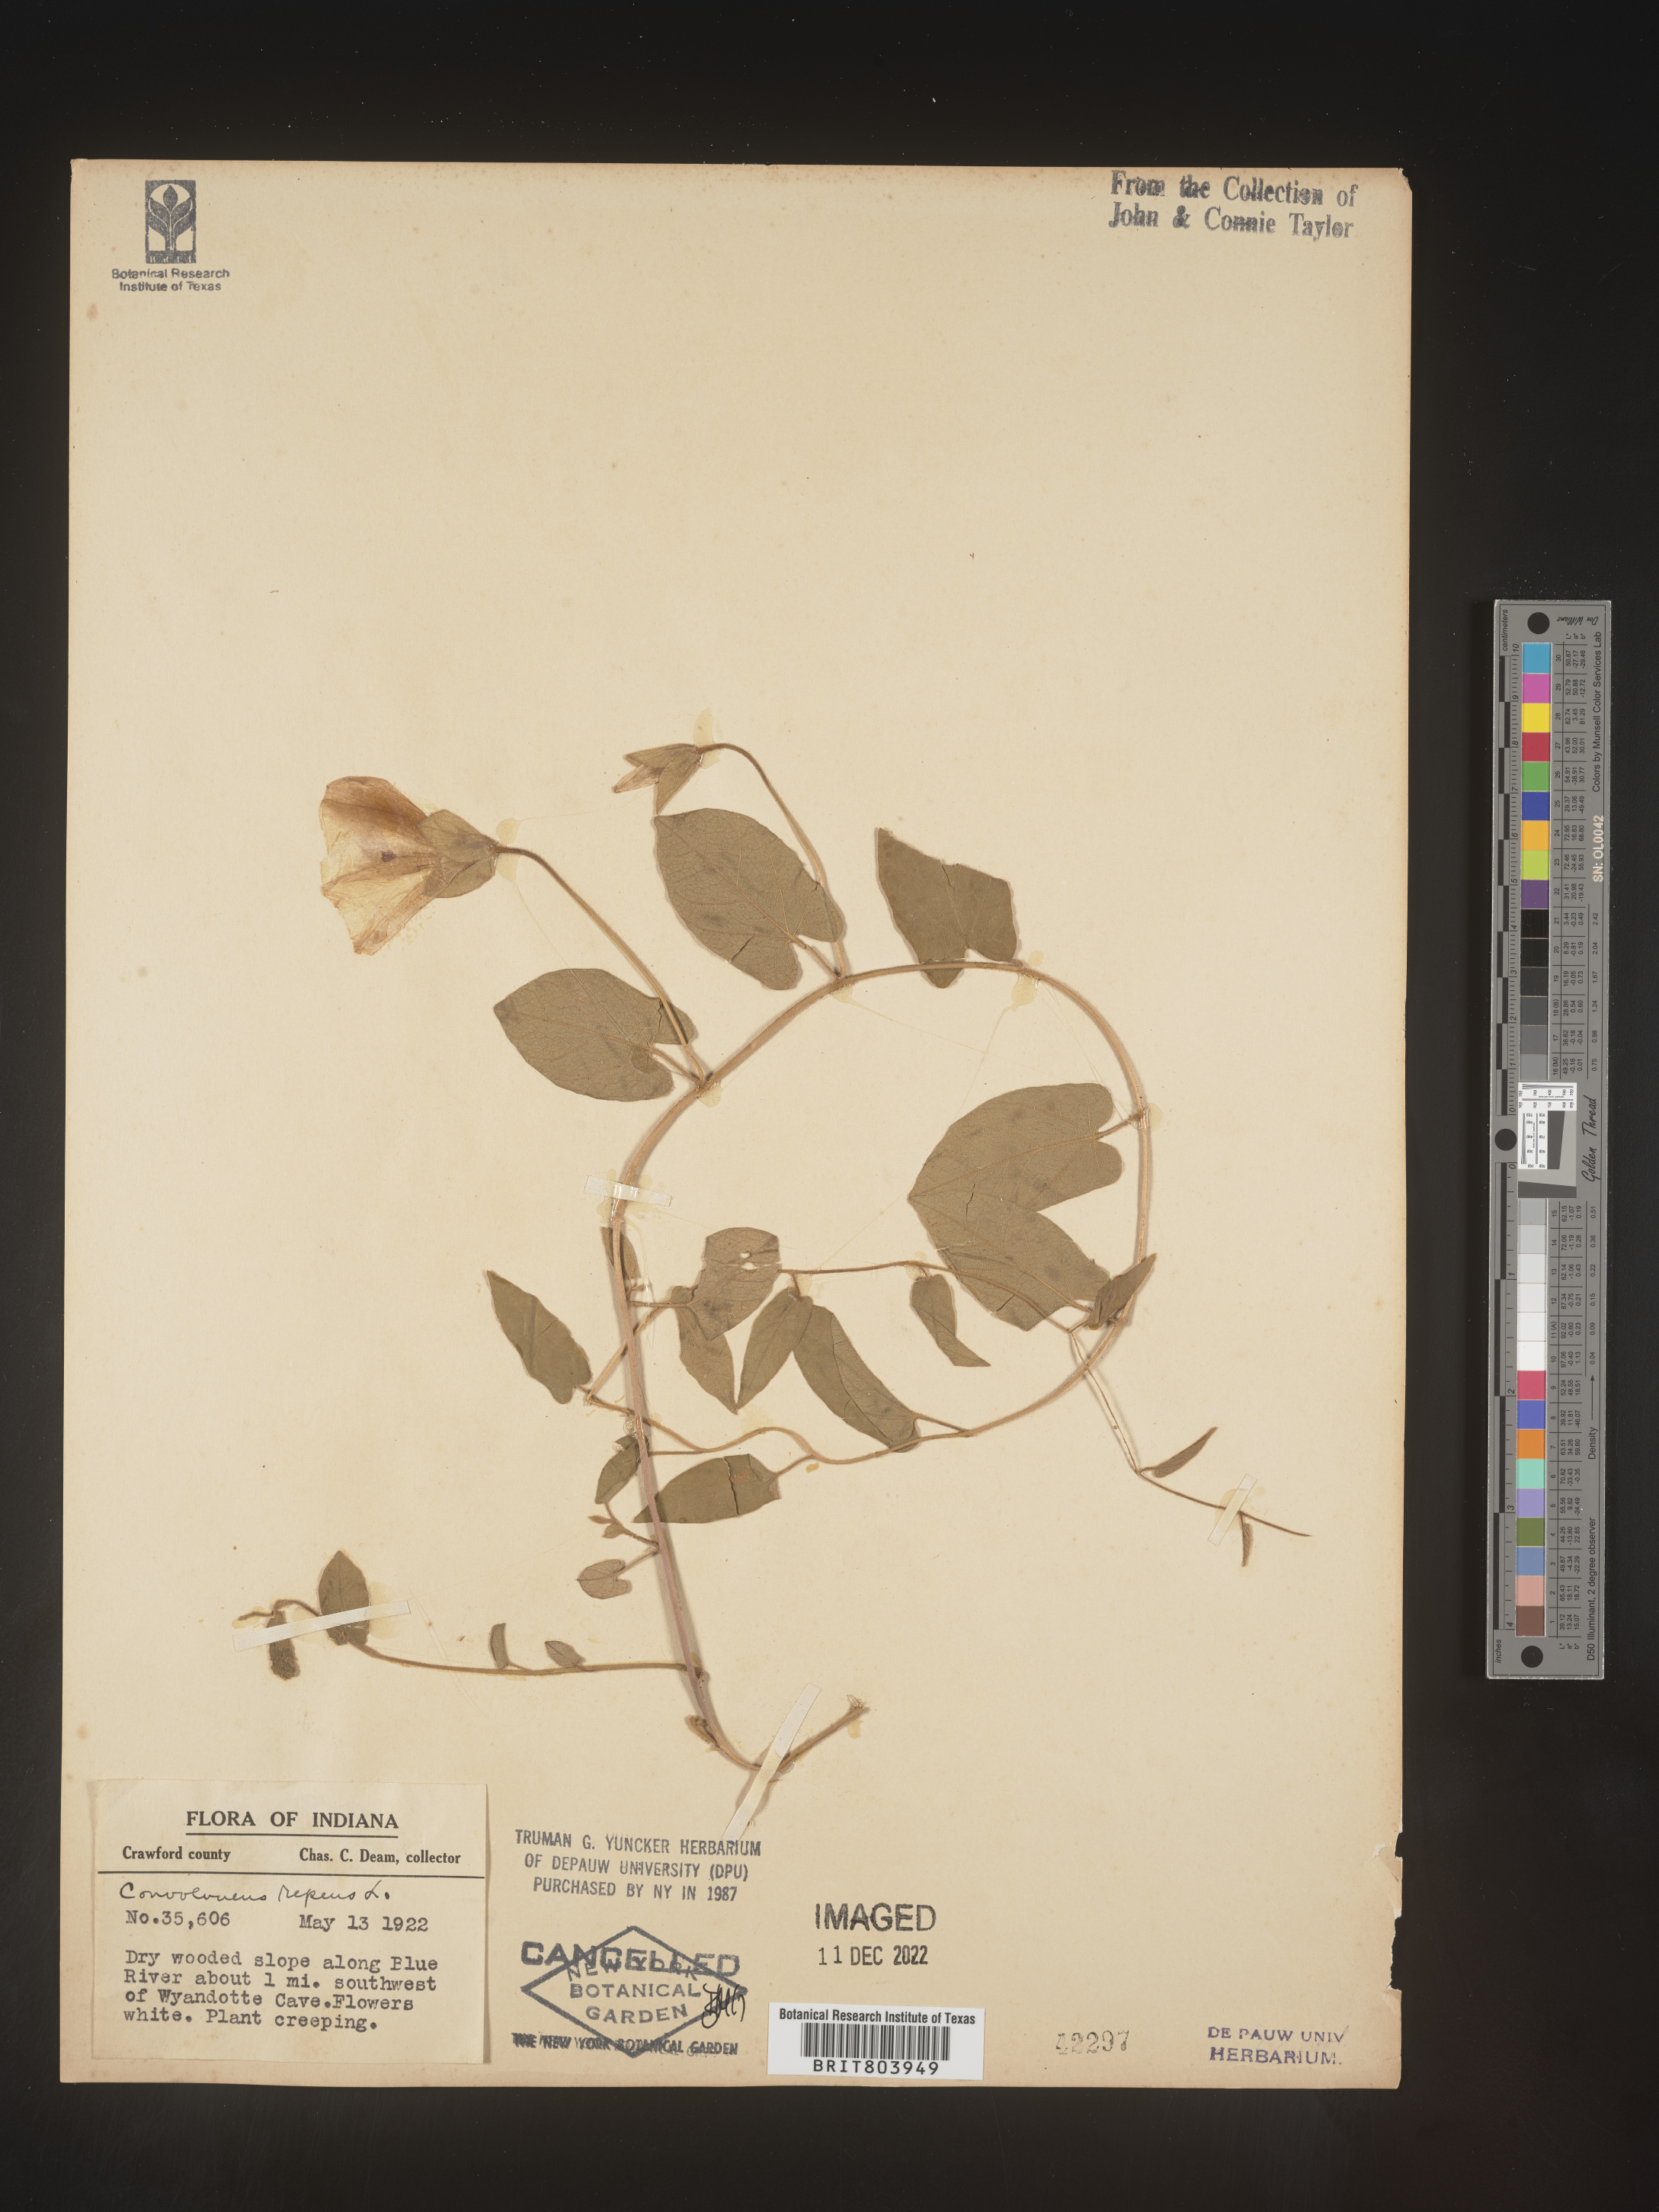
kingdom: Plantae
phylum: Tracheophyta
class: Magnoliopsida
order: Solanales
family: Convolvulaceae
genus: Calystegia
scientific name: Calystegia sepium
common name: Hedge bindweed
